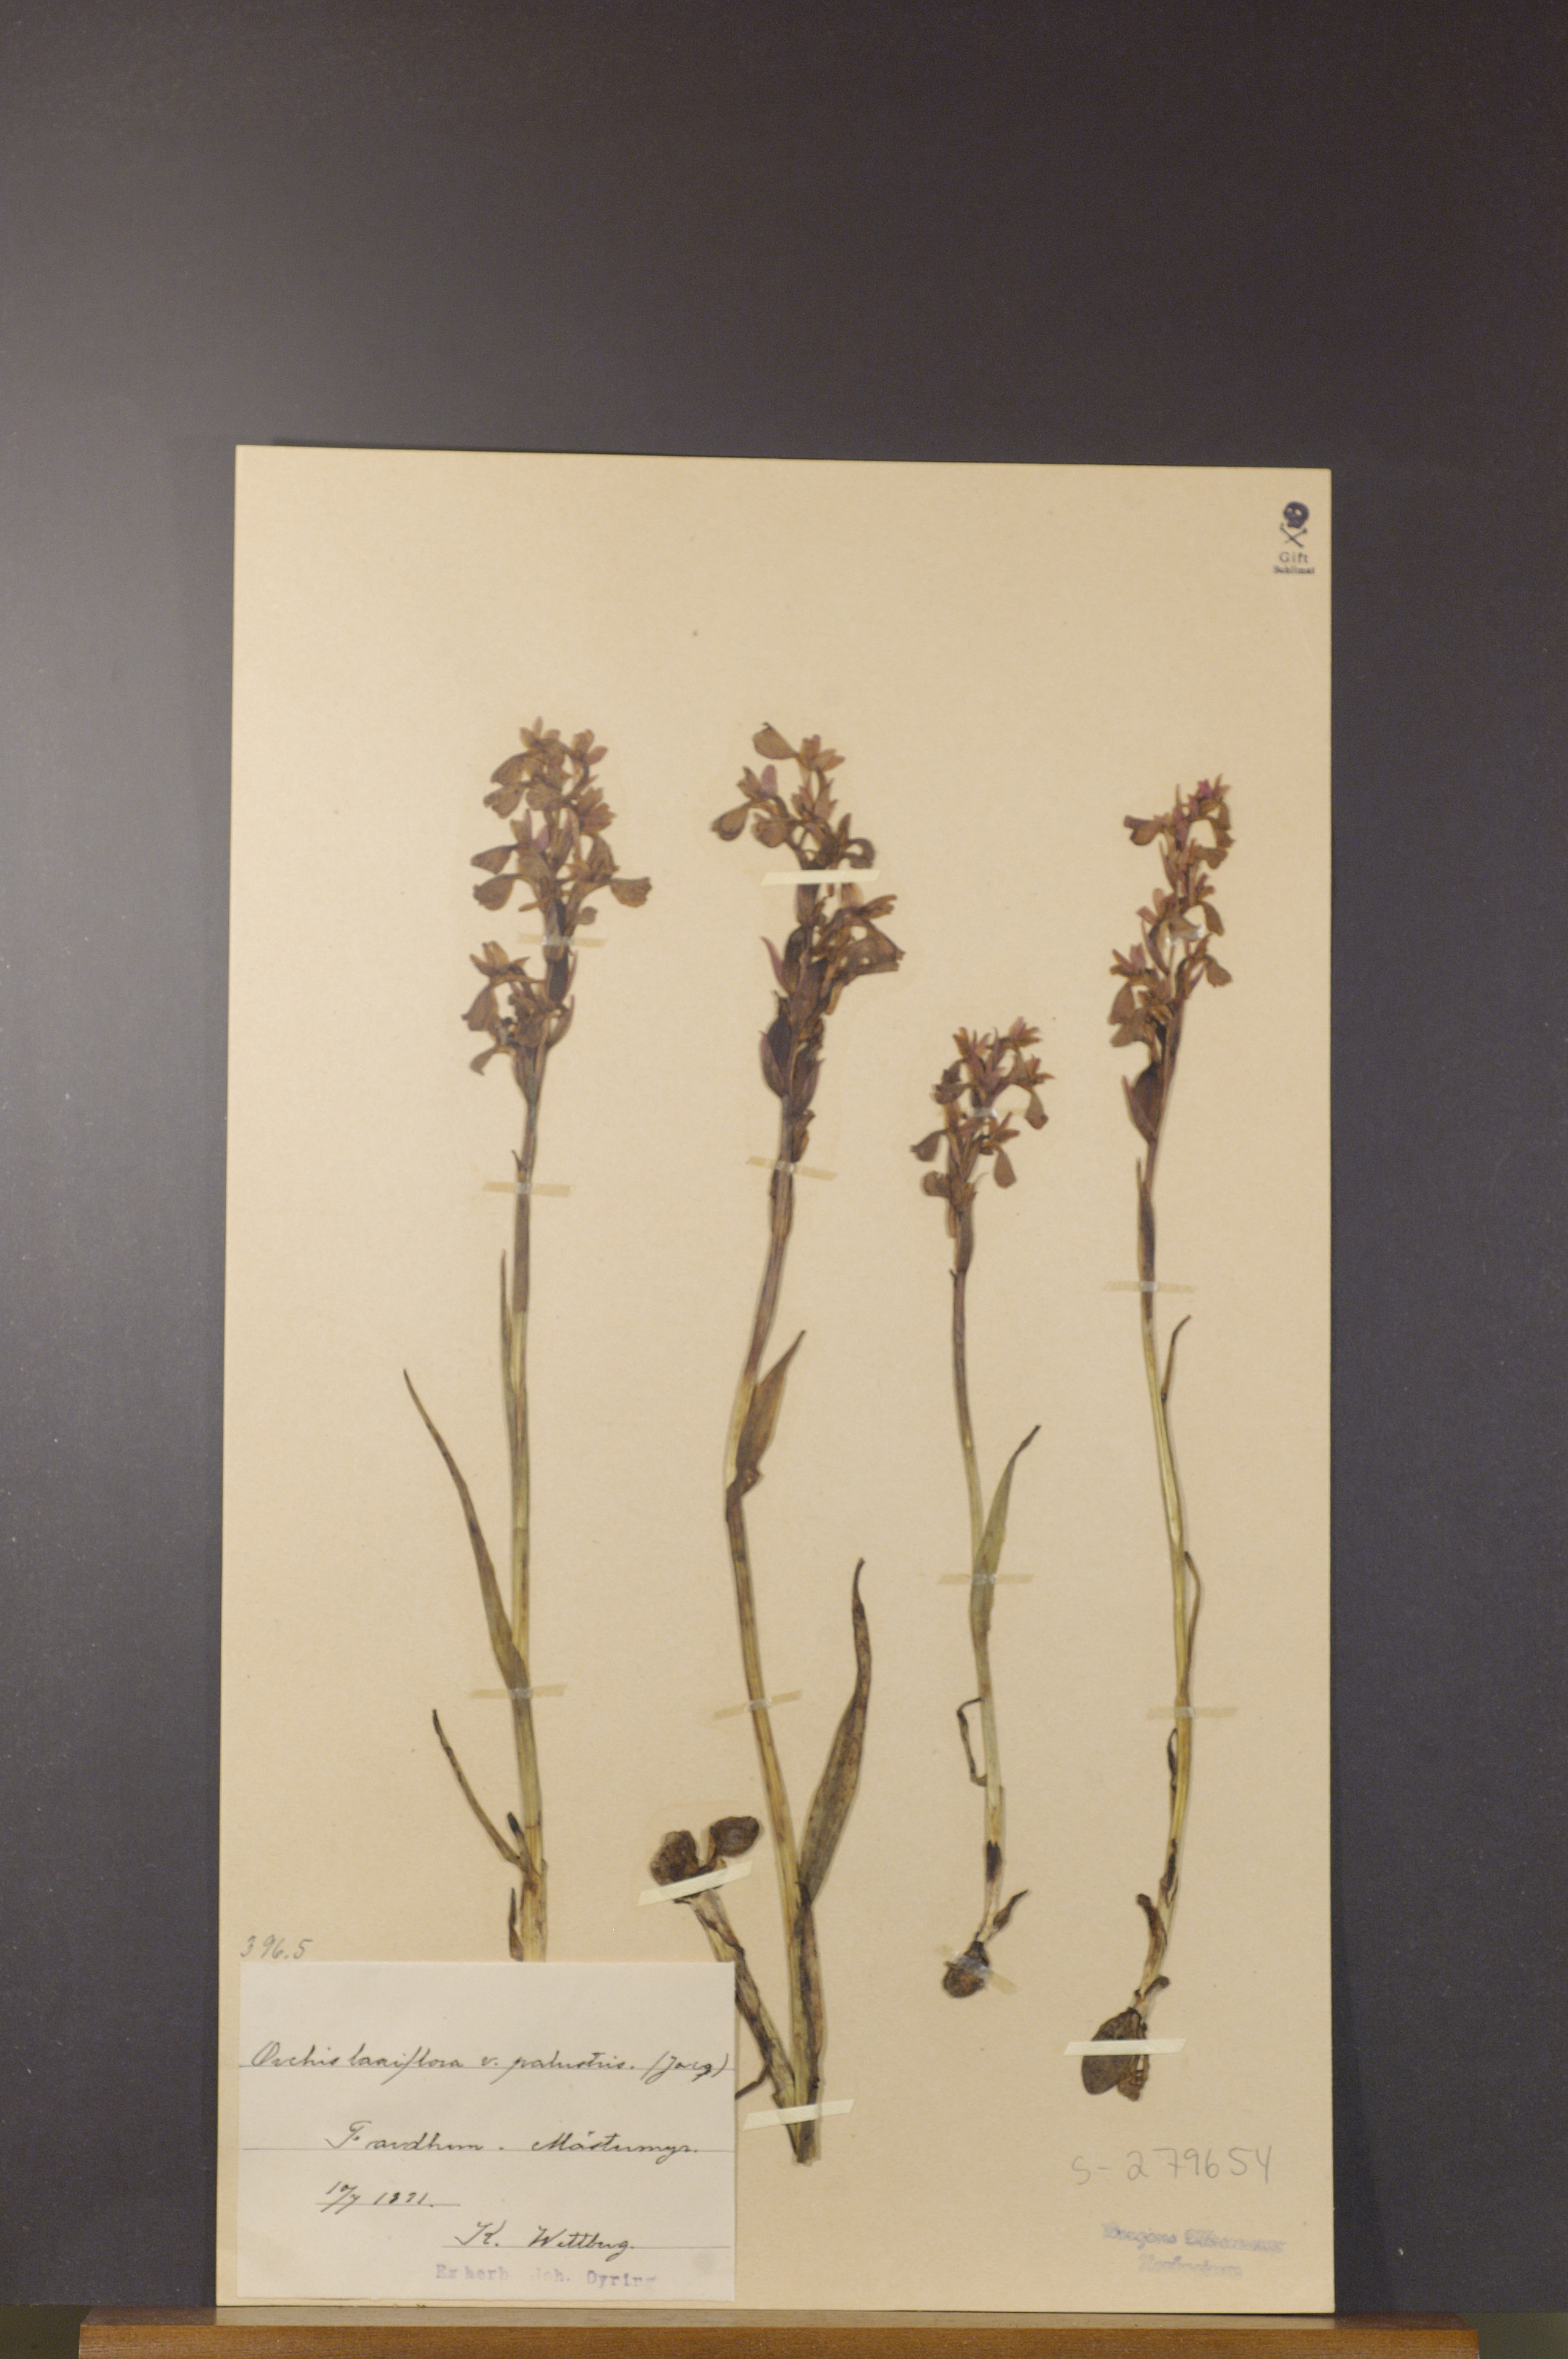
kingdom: Plantae
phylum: Tracheophyta
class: Liliopsida
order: Asparagales
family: Orchidaceae
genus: Anacamptis
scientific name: Anacamptis laxiflora
